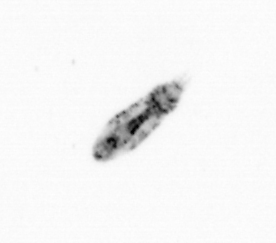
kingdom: Animalia
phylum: Arthropoda
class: Copepoda
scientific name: Copepoda
